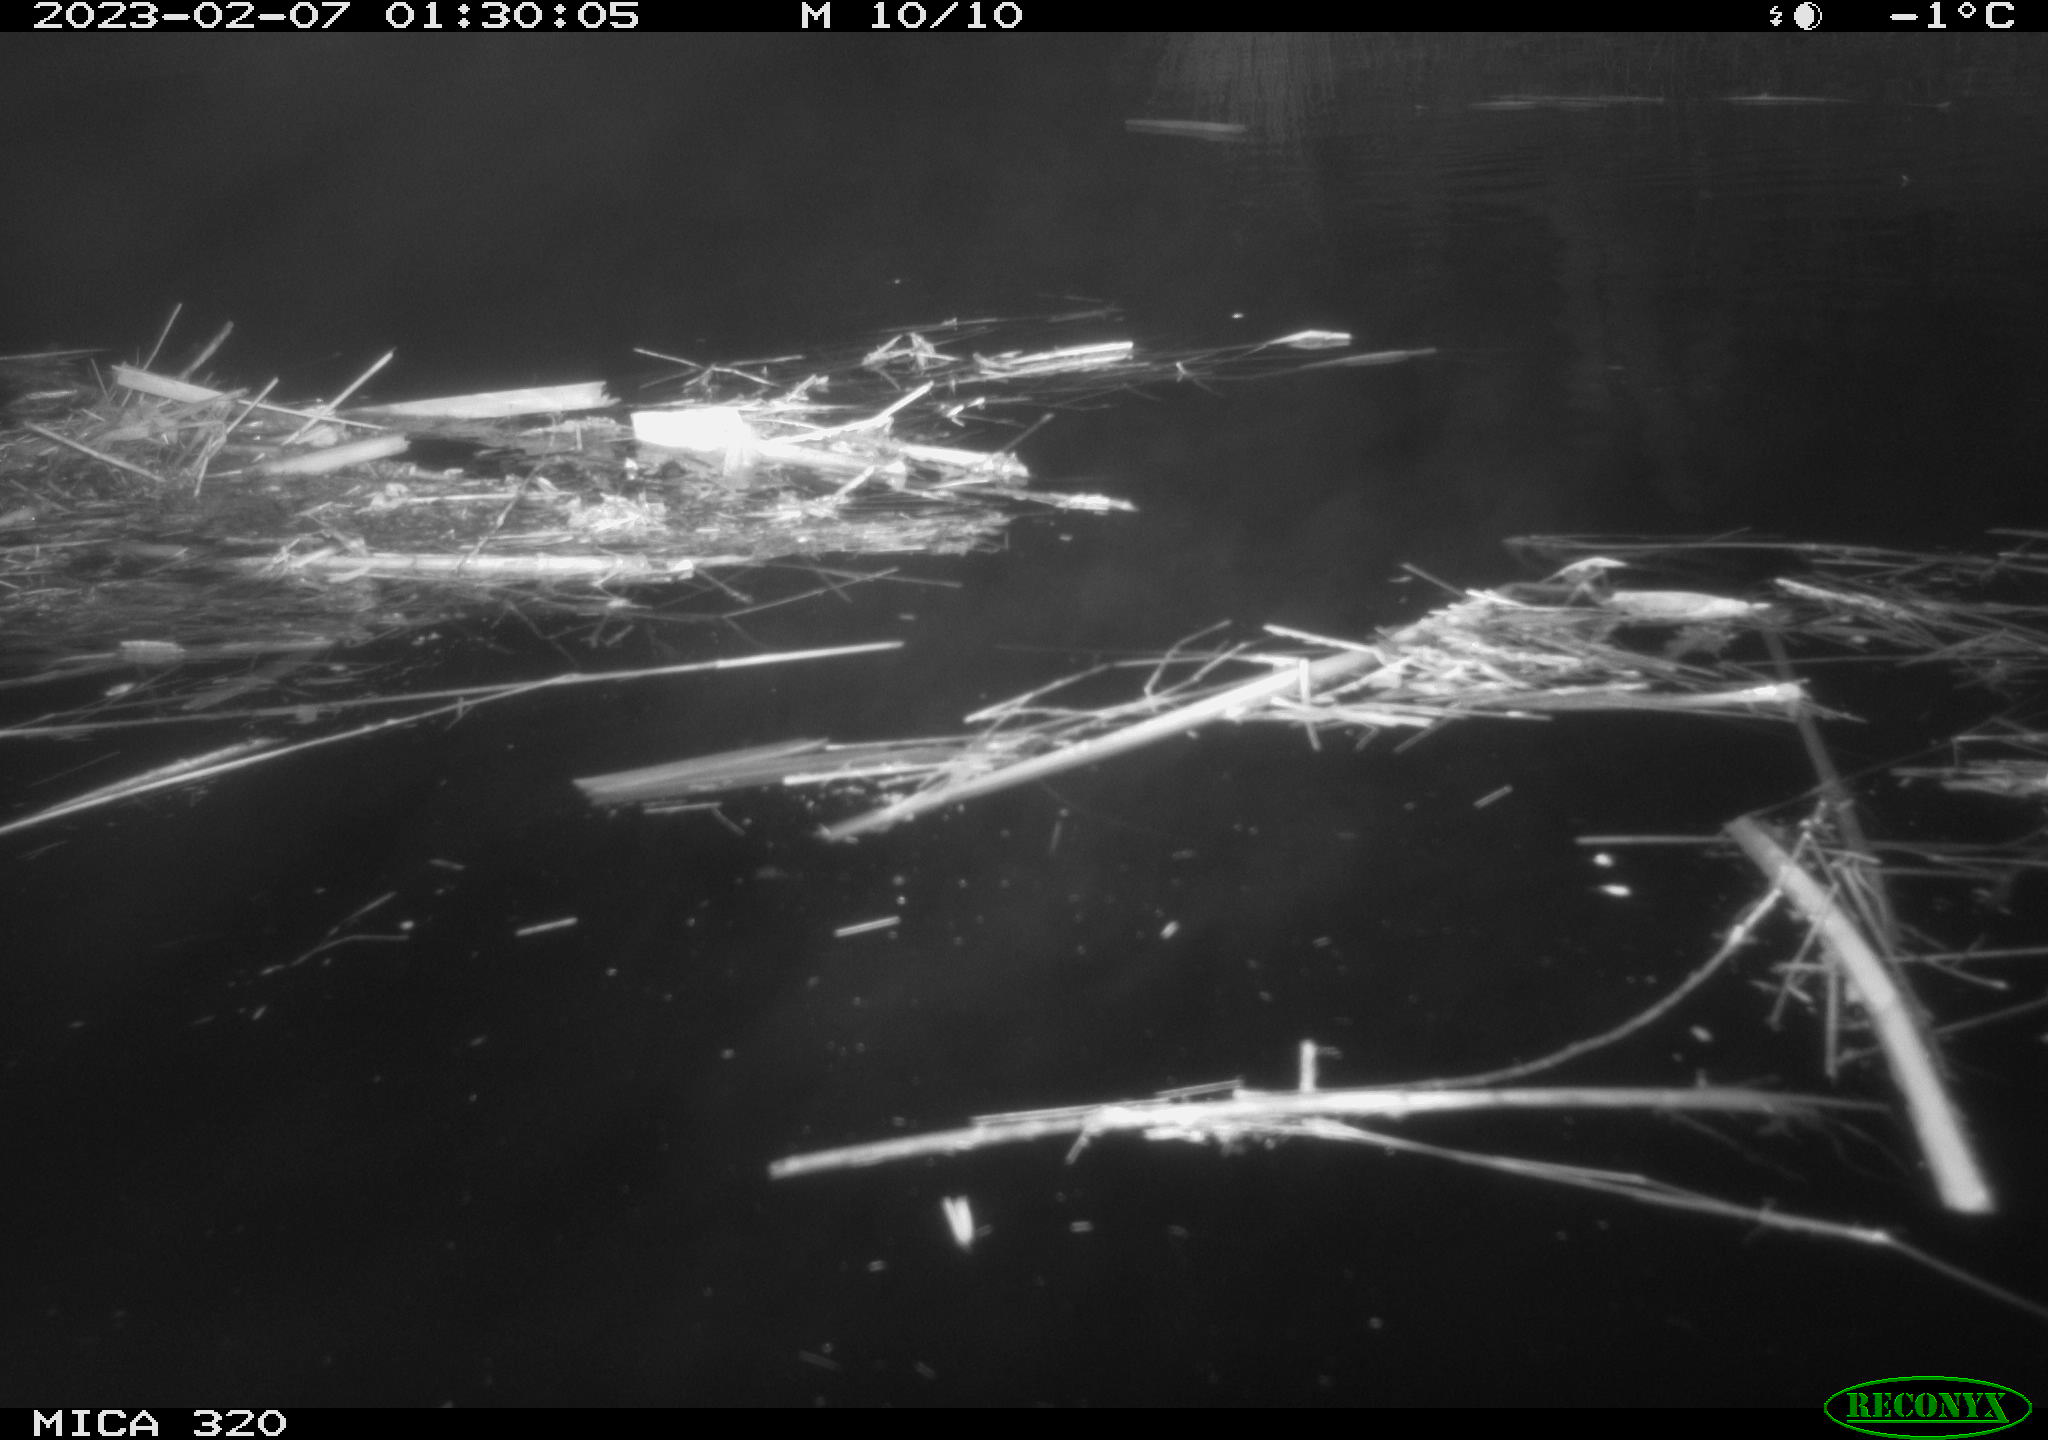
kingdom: Animalia
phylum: Chordata
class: Aves
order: Anseriformes
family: Anatidae
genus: Anas
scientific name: Anas
